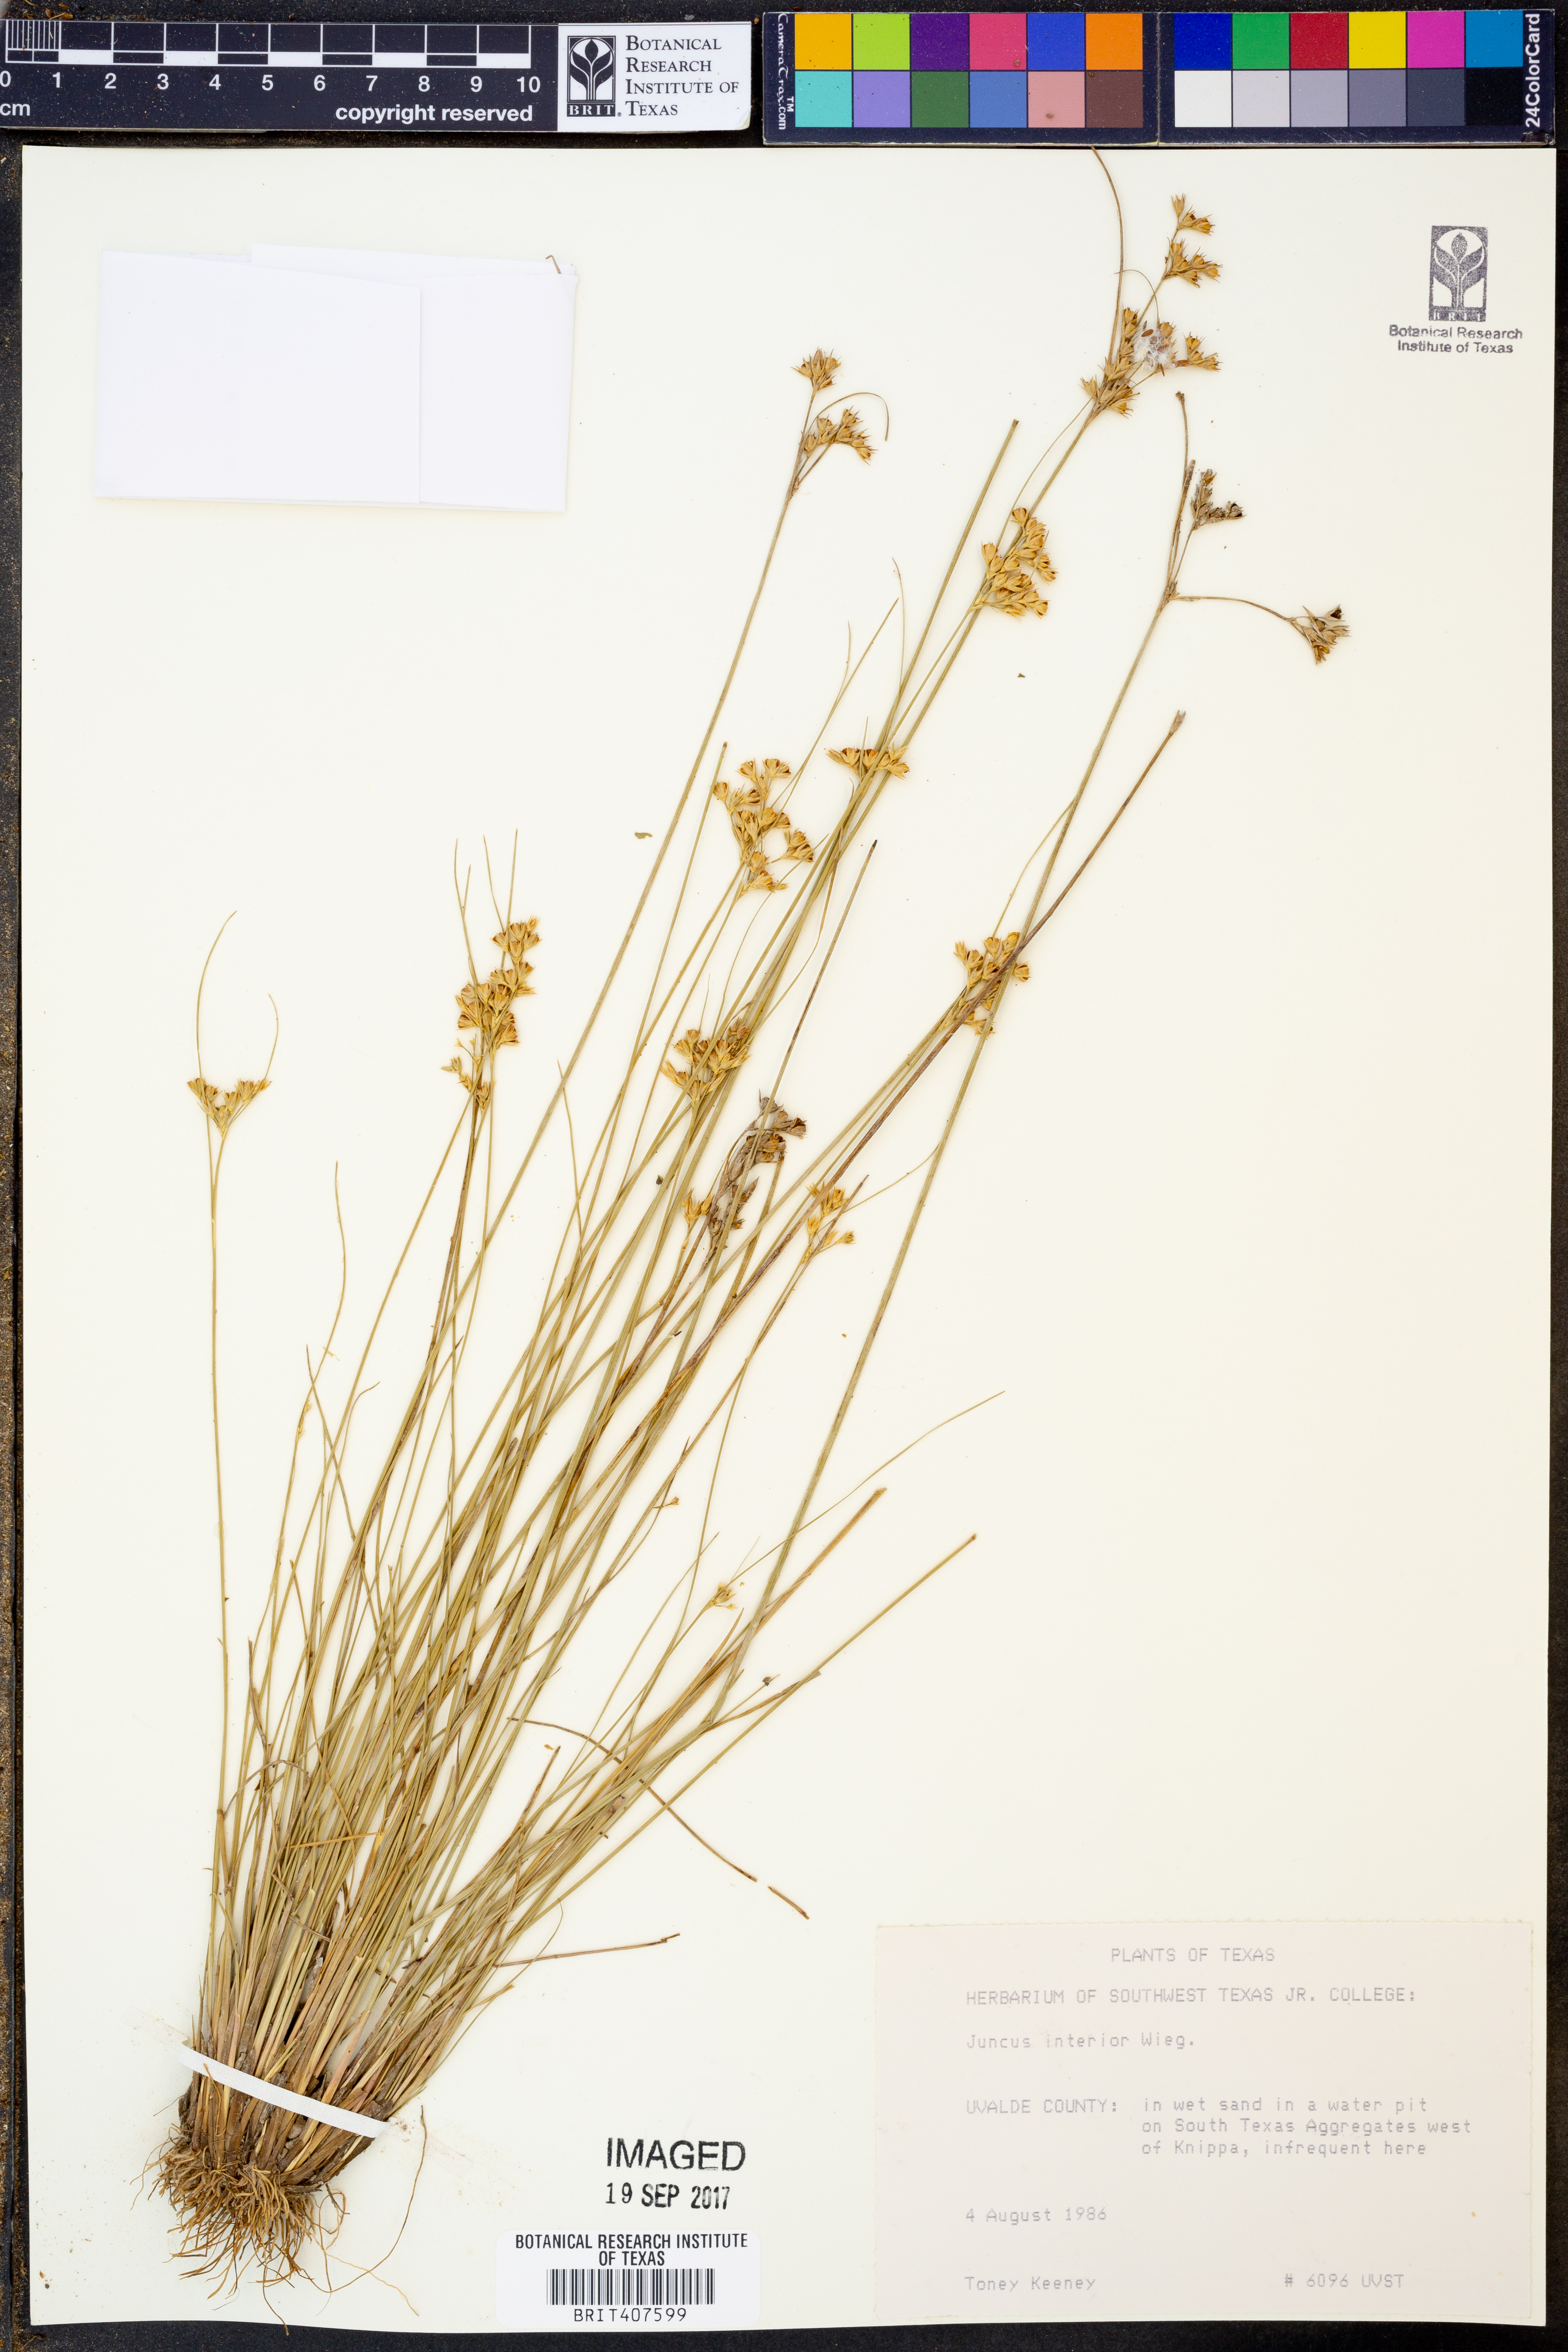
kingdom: Plantae
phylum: Tracheophyta
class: Liliopsida
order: Poales
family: Juncaceae
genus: Juncus
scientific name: Juncus interior
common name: Interior rush
